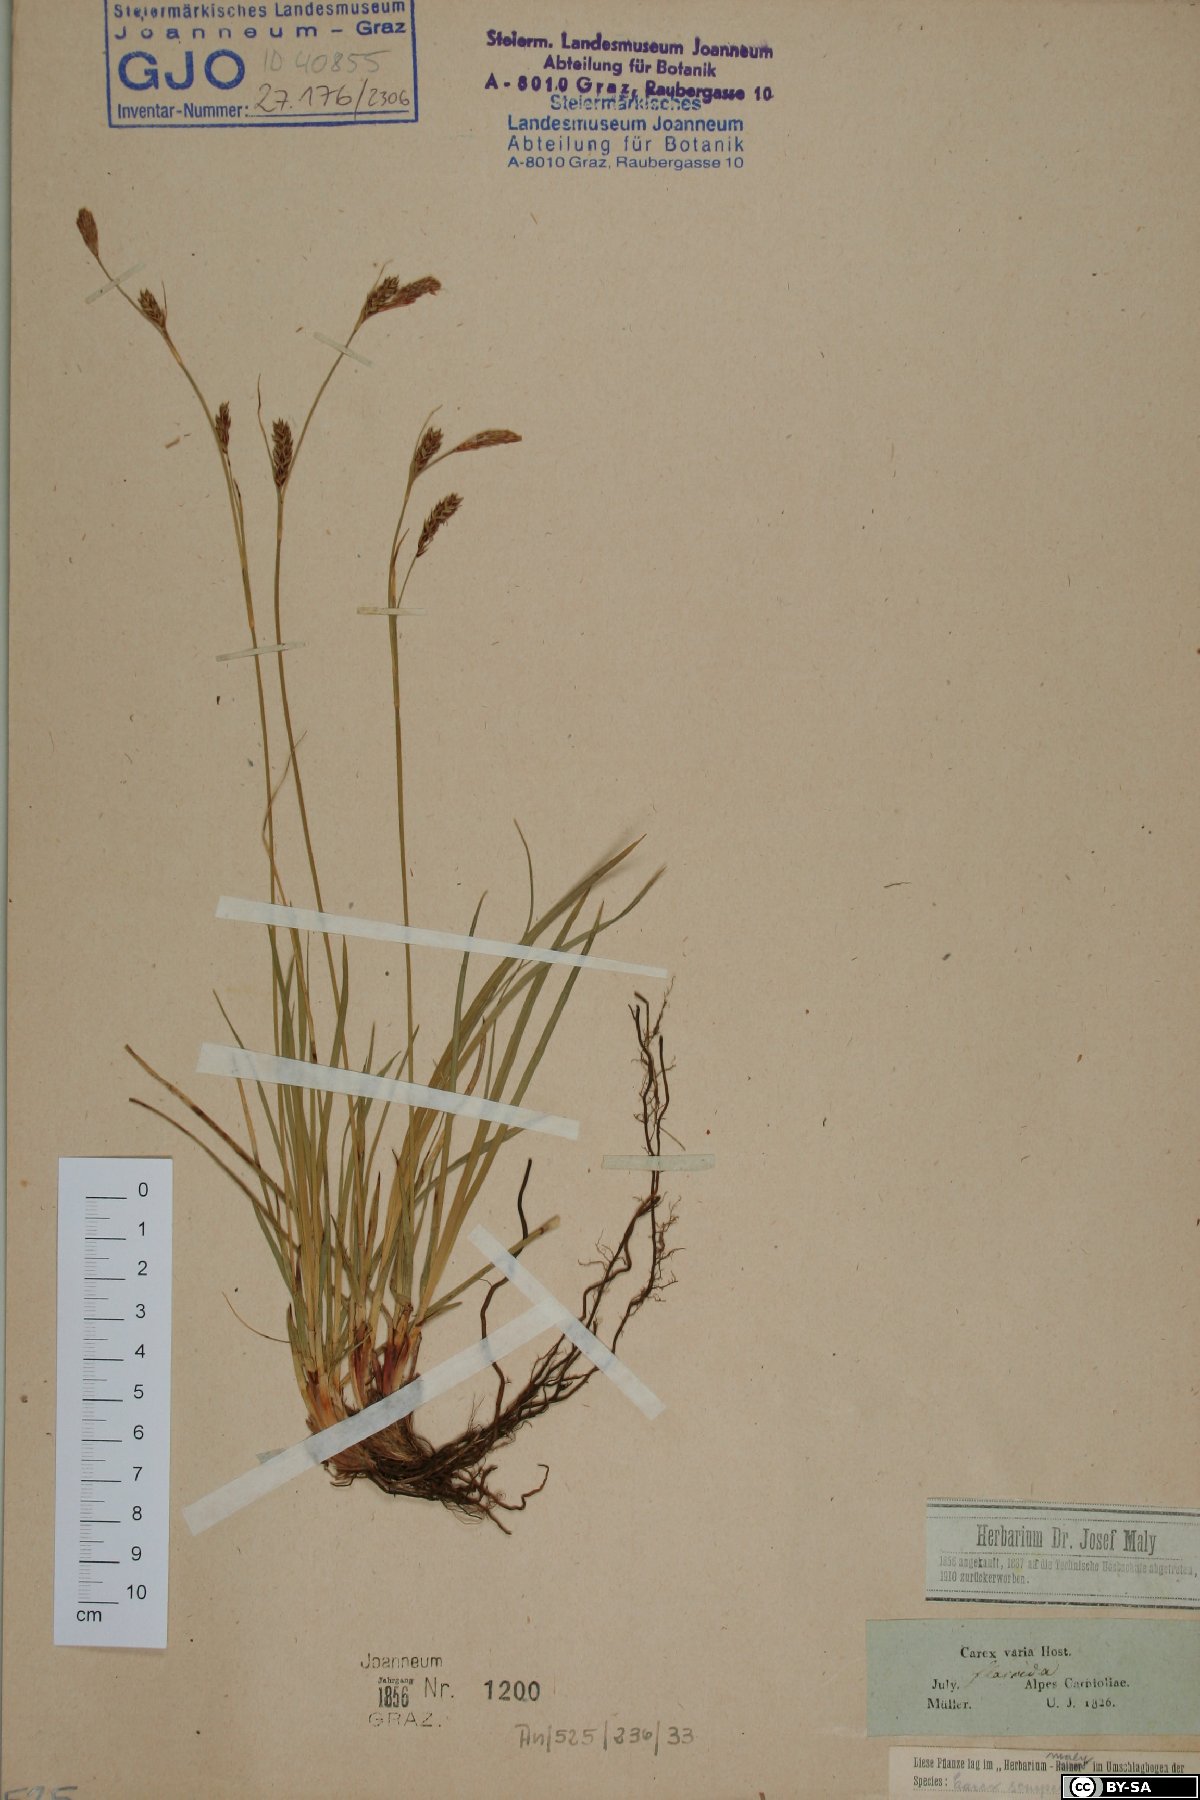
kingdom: Plantae
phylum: Tracheophyta
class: Liliopsida
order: Poales
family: Cyperaceae
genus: Carex
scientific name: Carex sempervirens
